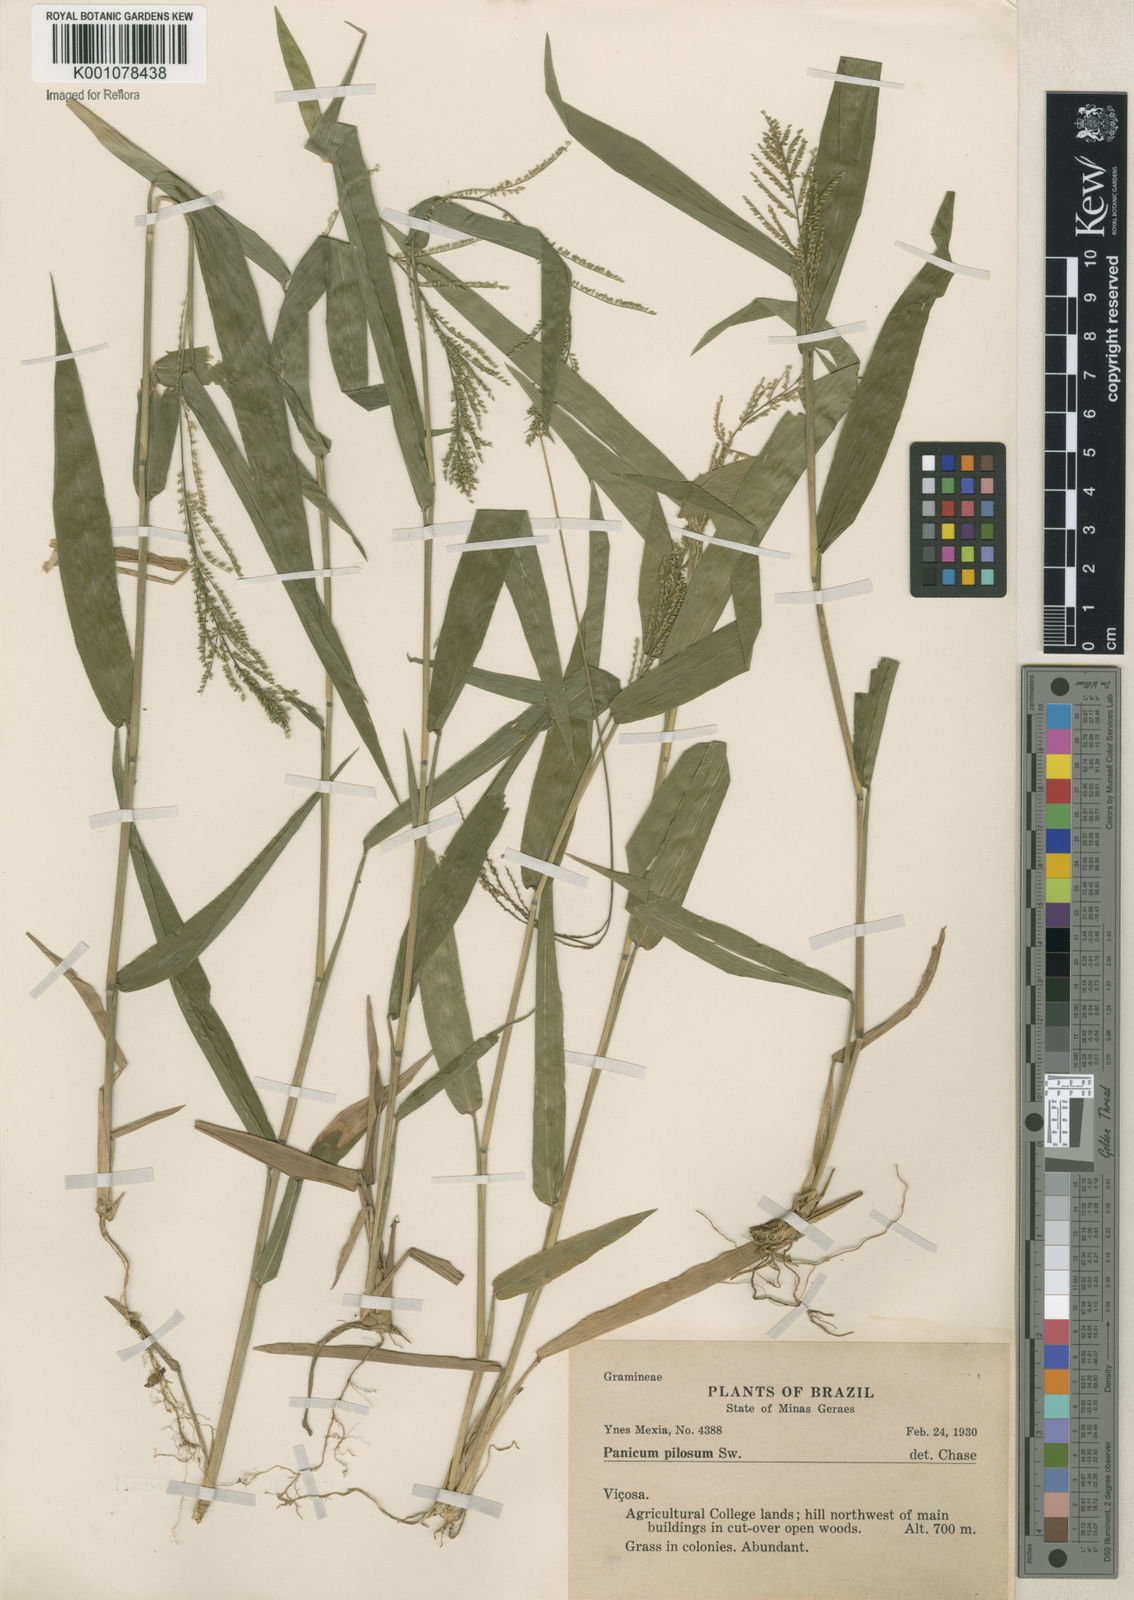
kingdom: Plantae
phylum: Tracheophyta
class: Liliopsida
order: Poales
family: Poaceae
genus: Rugoloa
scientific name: Rugoloa pilosa
